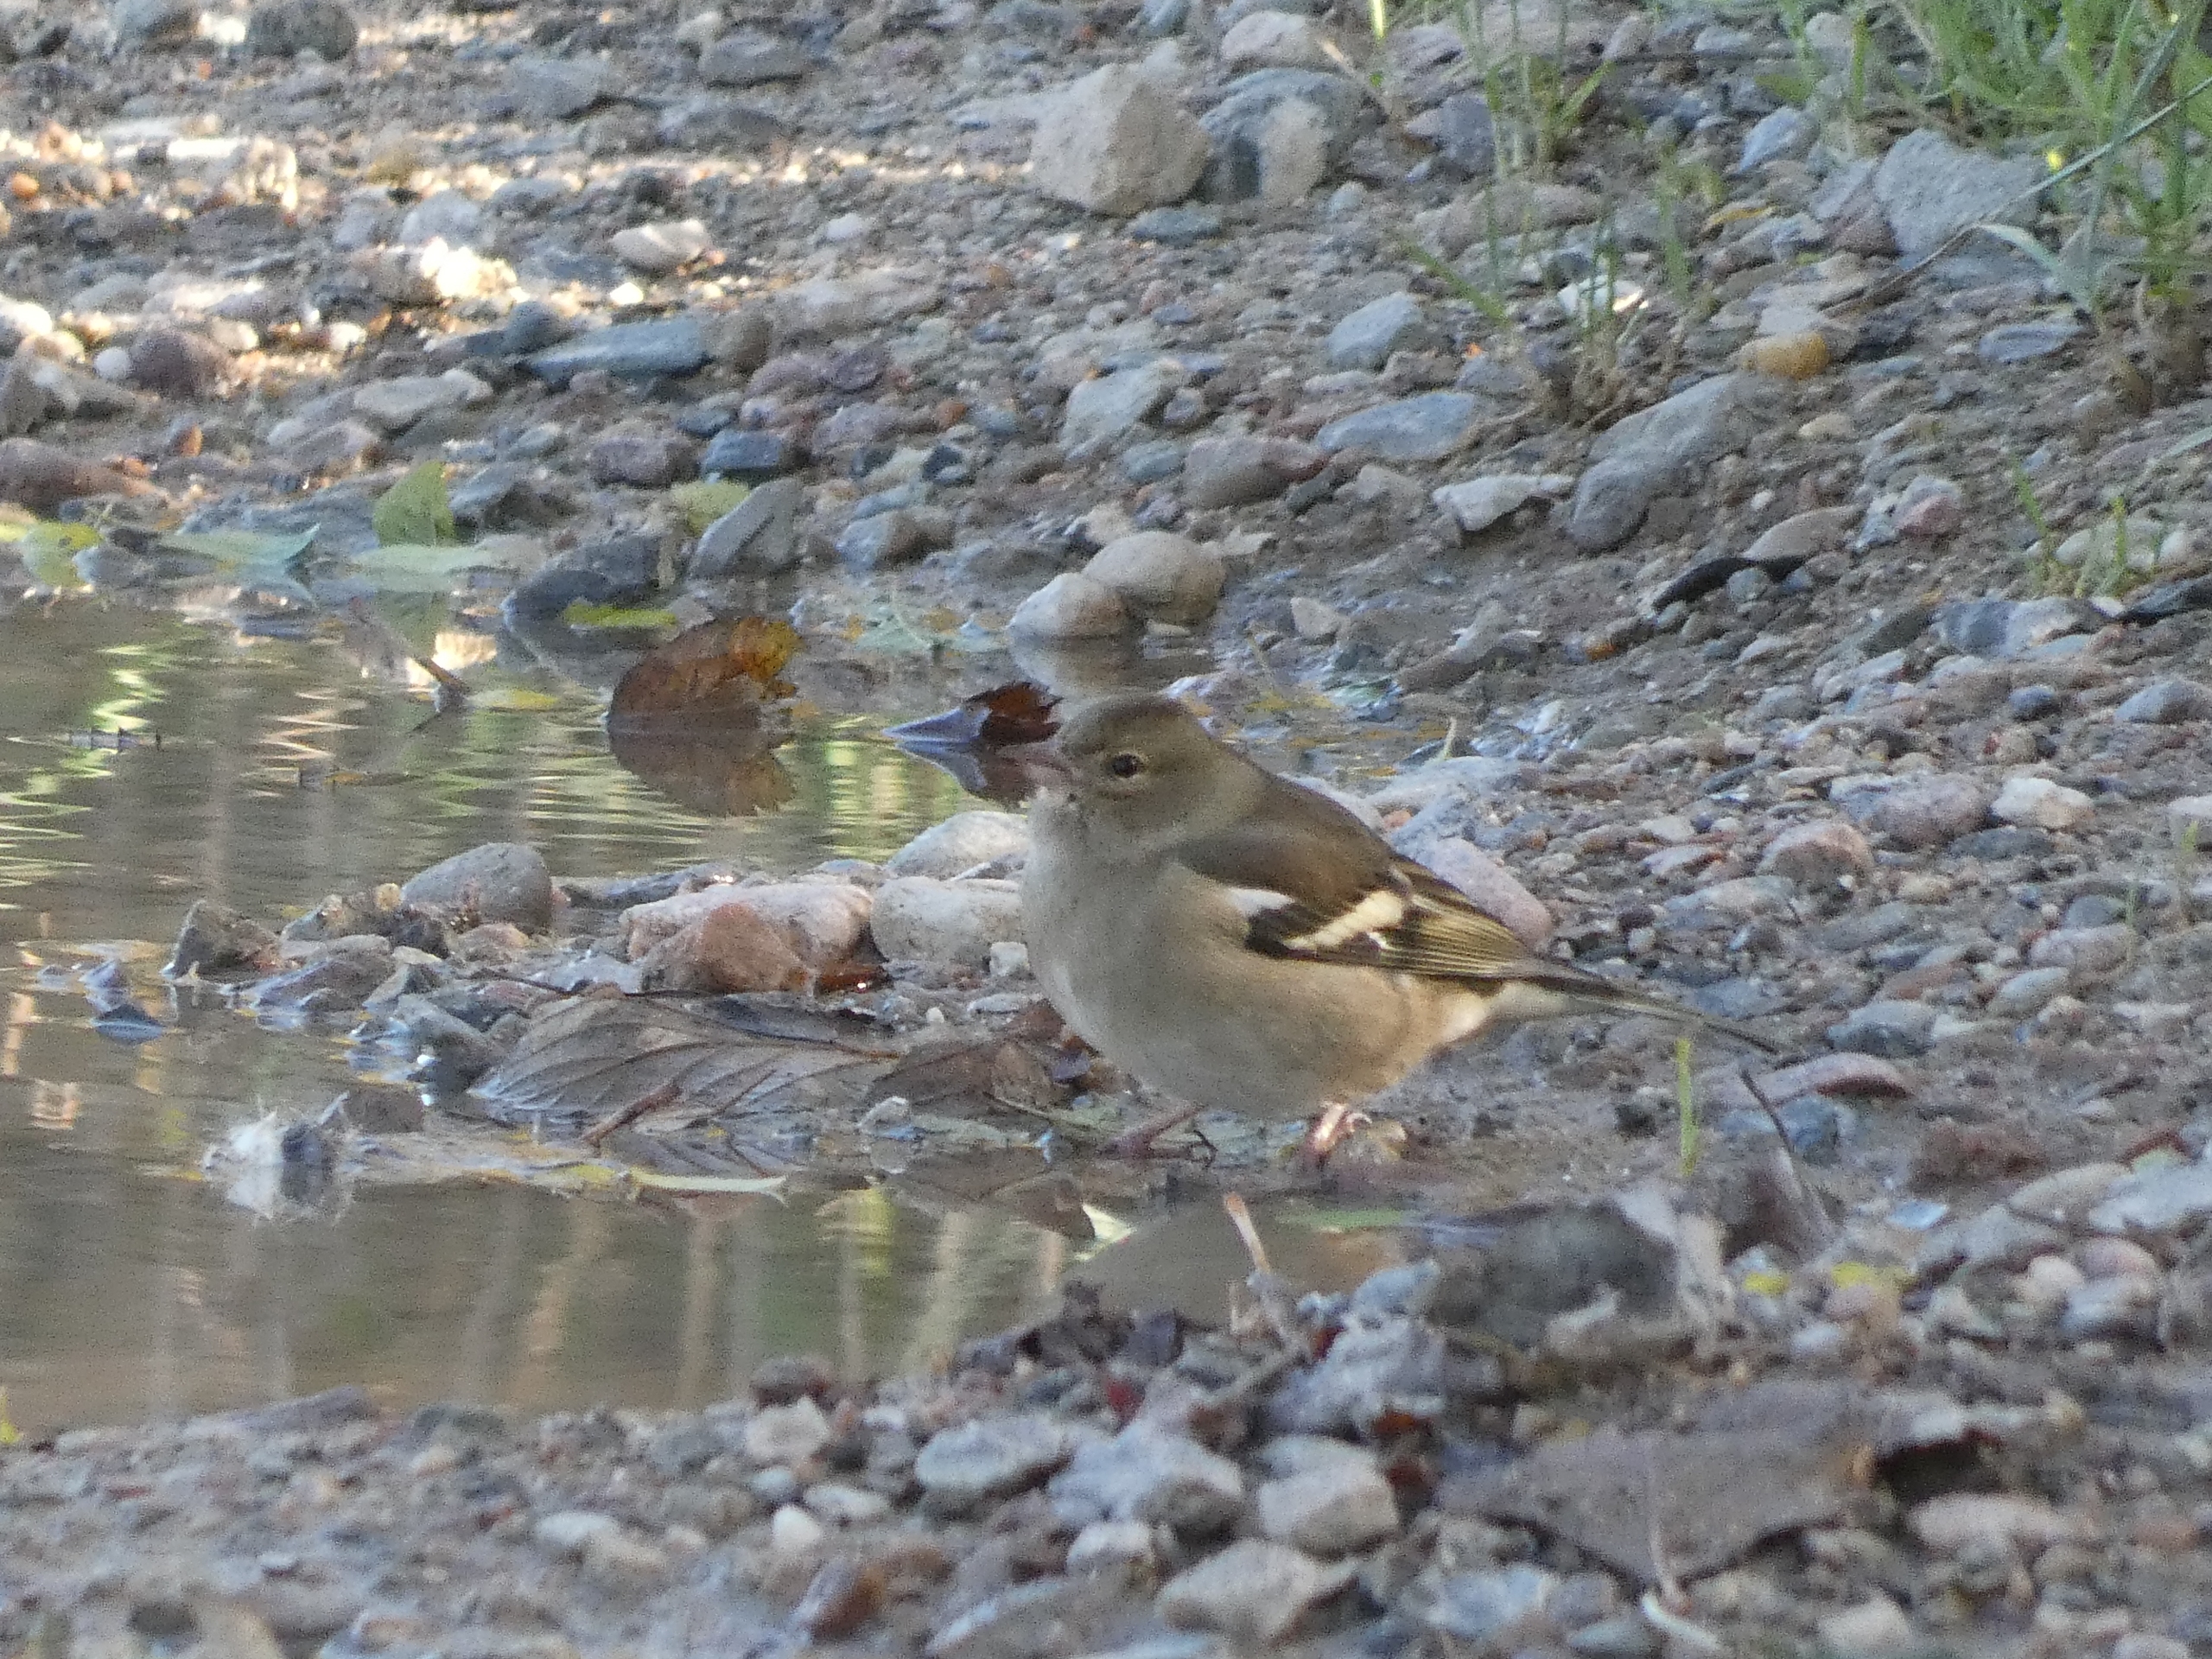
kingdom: Animalia
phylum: Chordata
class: Aves
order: Passeriformes
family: Fringillidae
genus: Fringilla
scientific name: Fringilla coelebs
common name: Bogfinke
